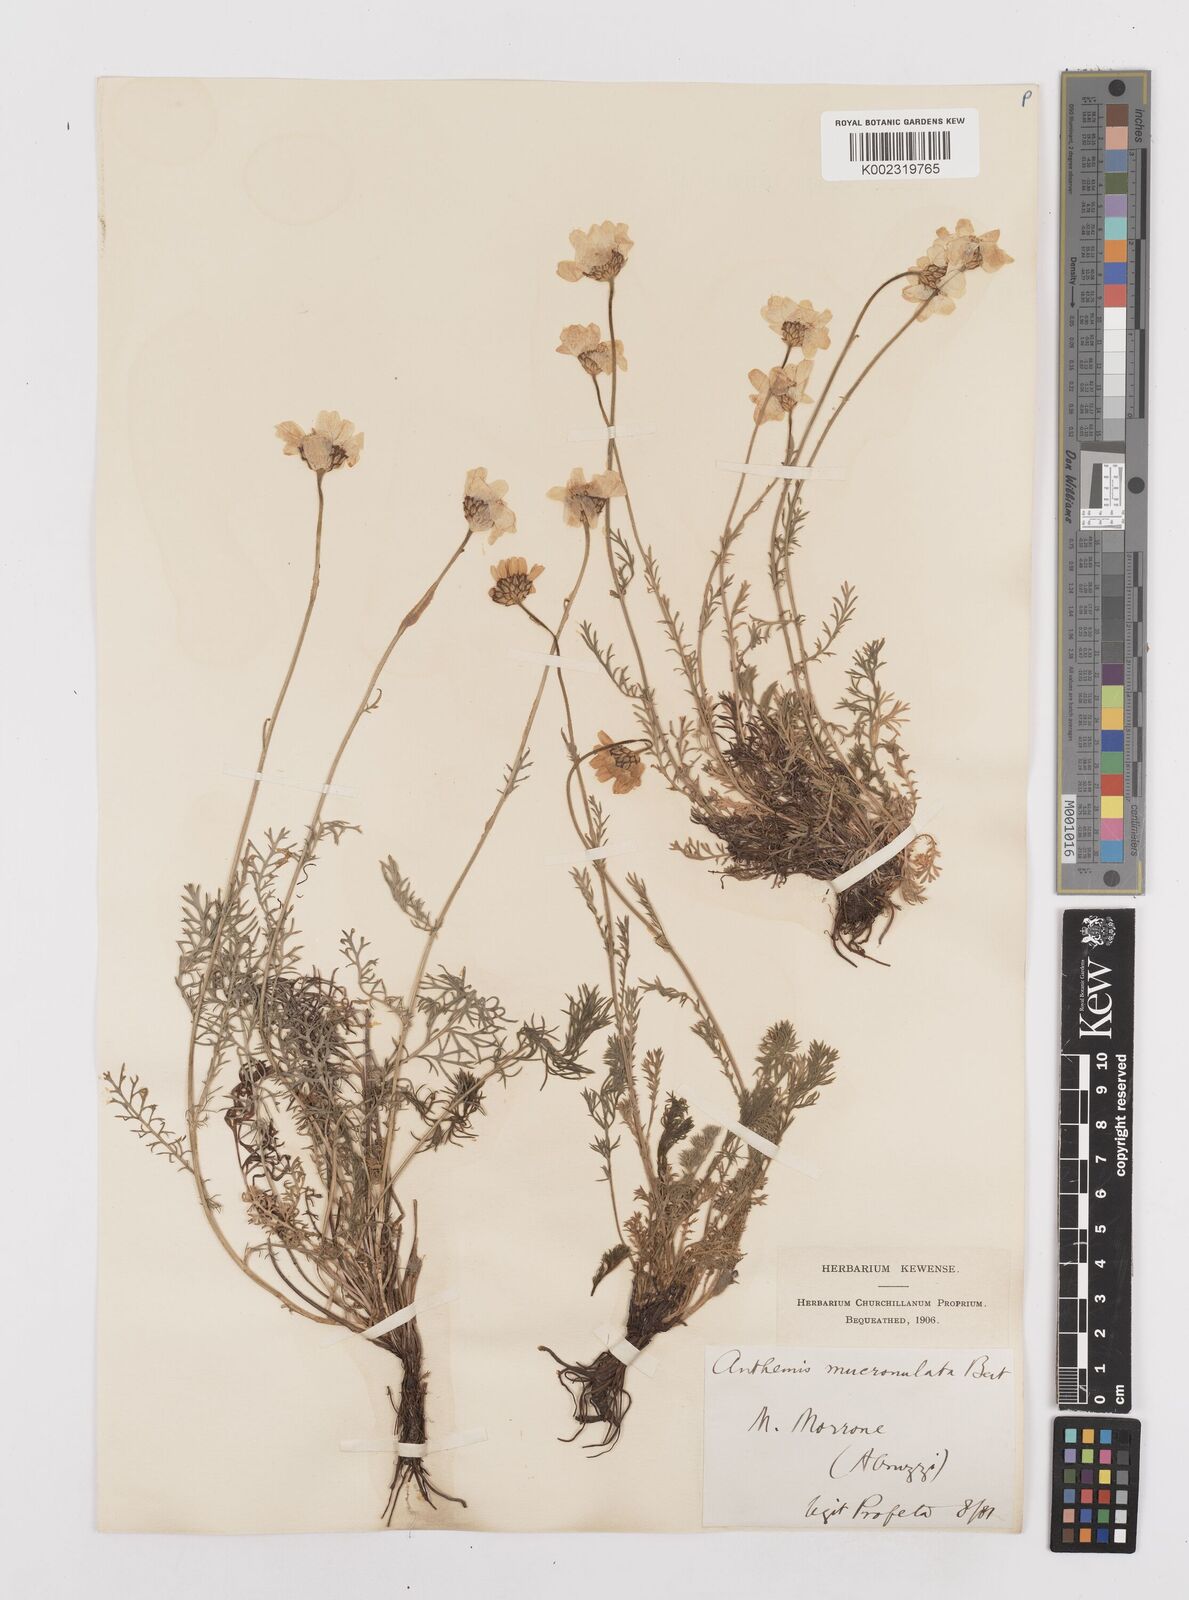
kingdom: Plantae
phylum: Tracheophyta
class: Magnoliopsida
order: Asterales
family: Asteraceae
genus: Achillea
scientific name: Achillea barrelieri
